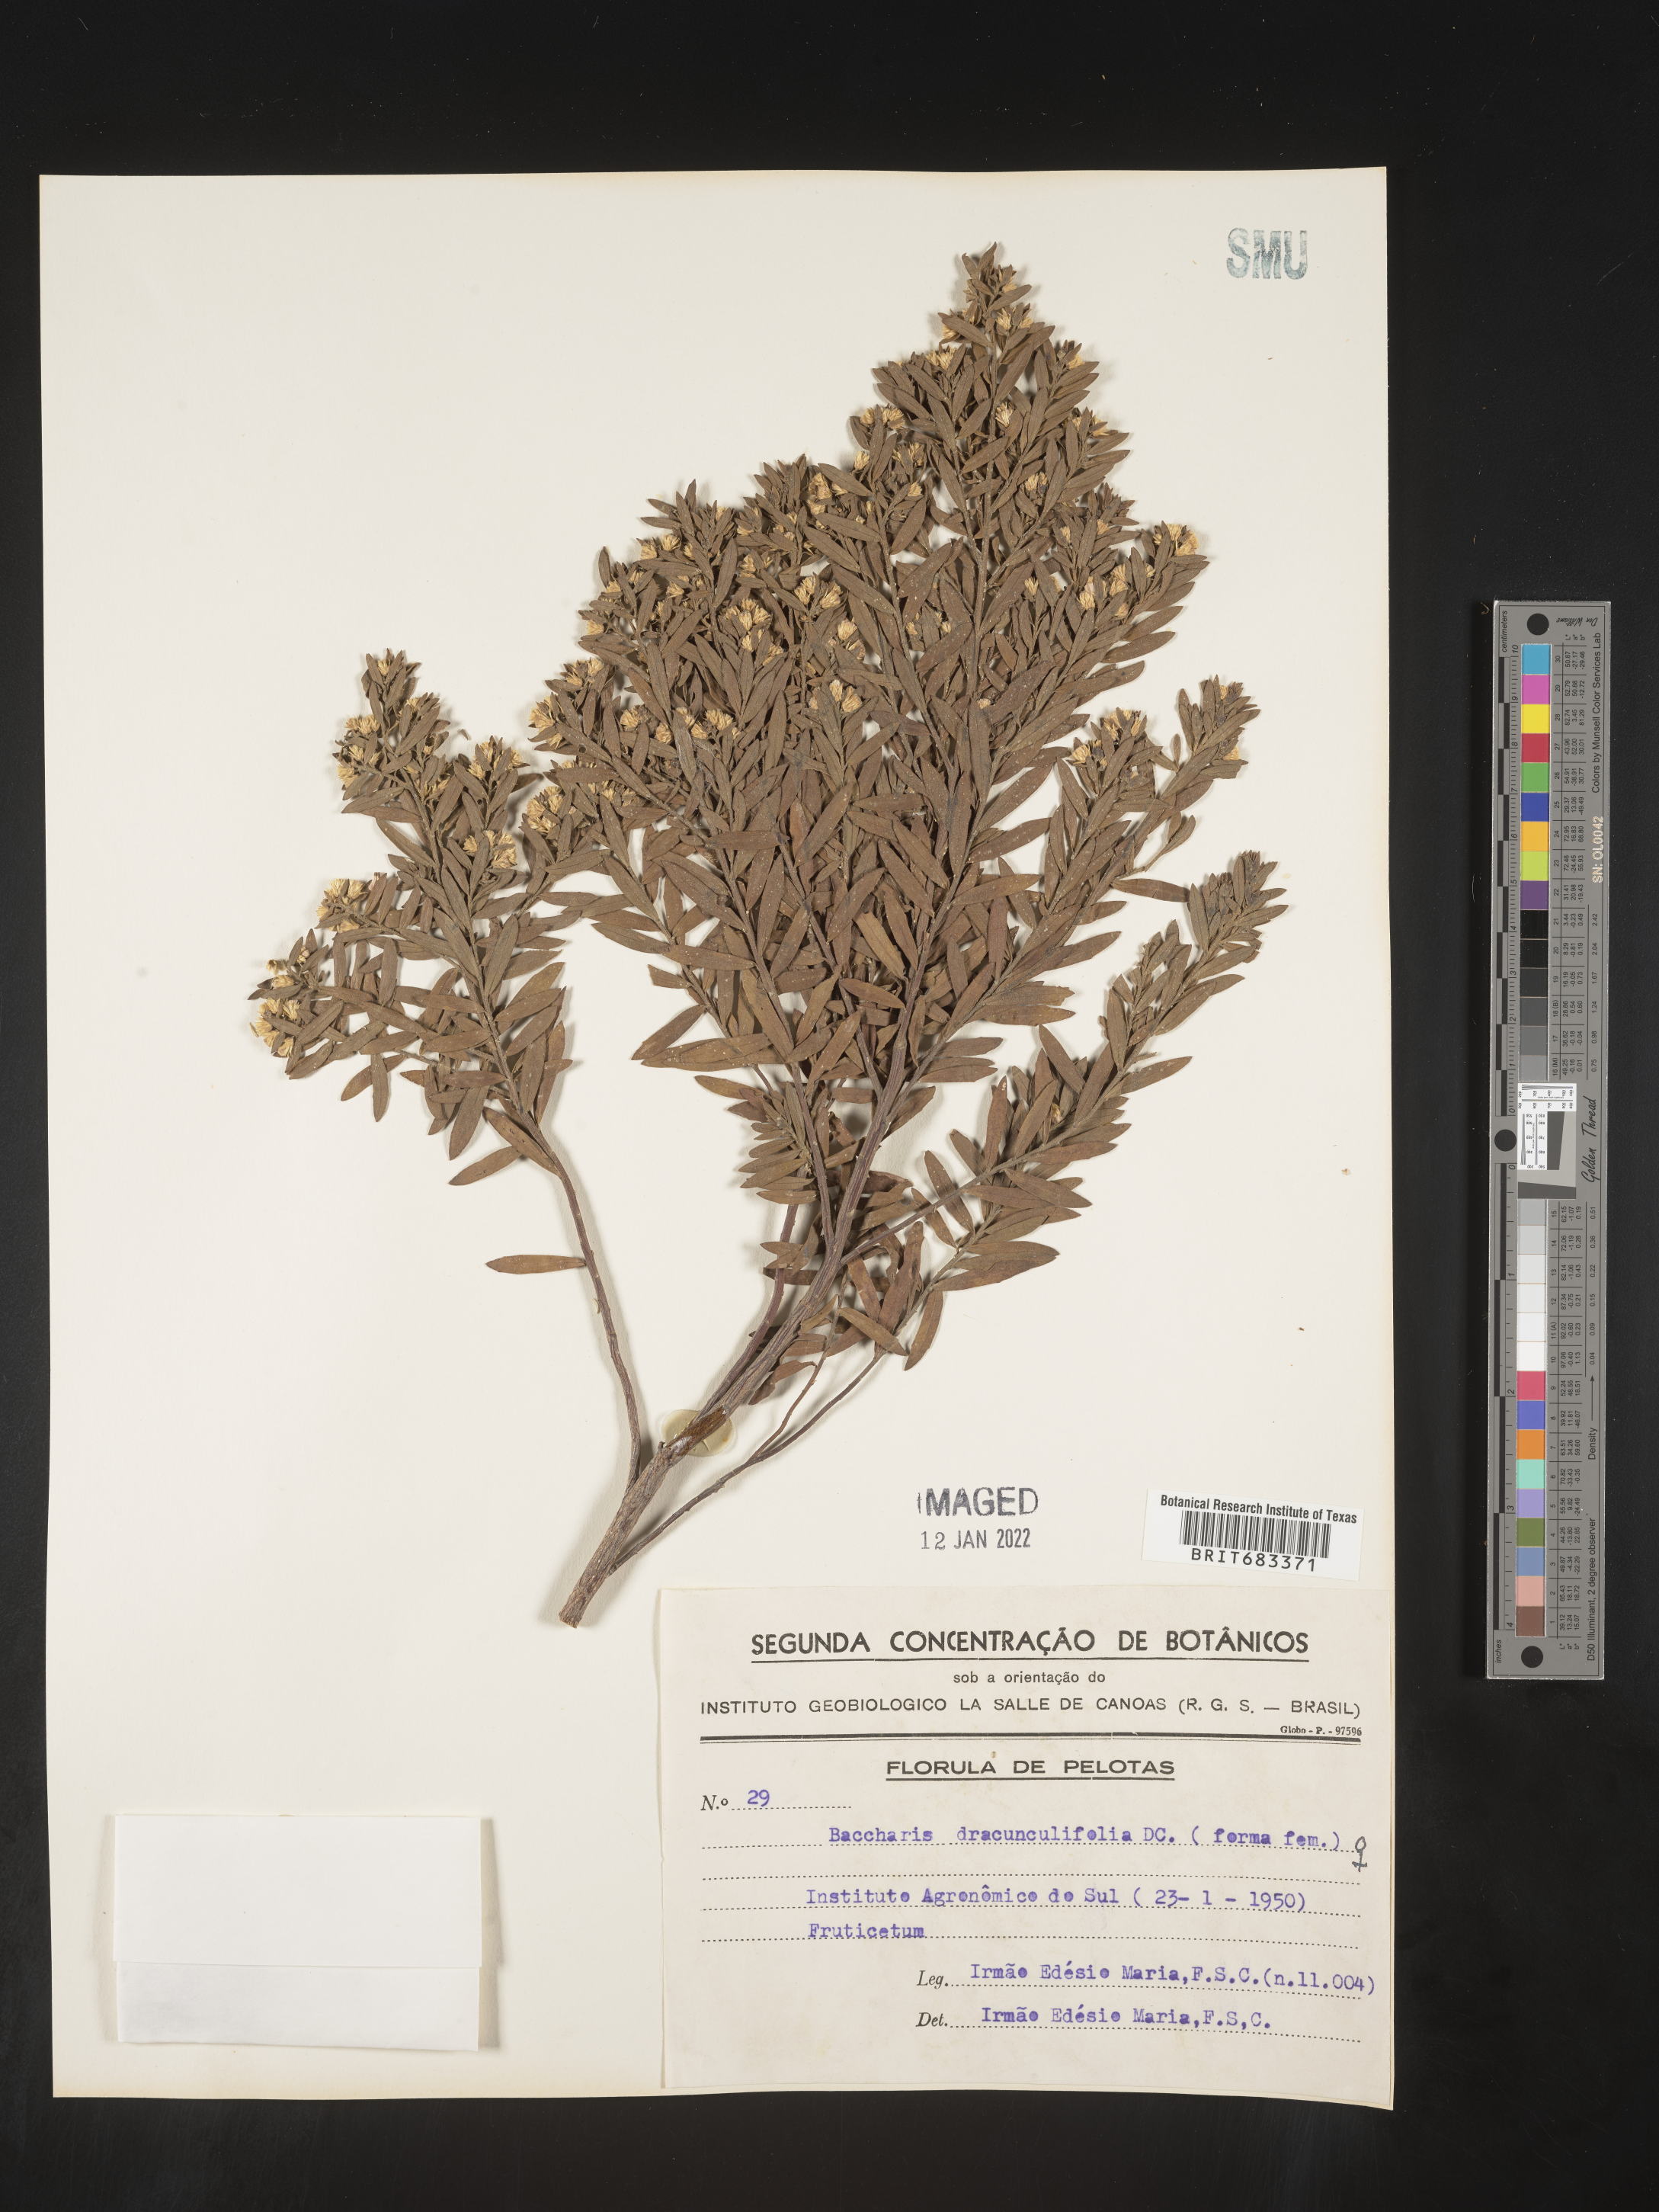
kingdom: Plantae
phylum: Tracheophyta
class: Magnoliopsida
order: Asterales
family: Asteraceae
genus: Baccharis
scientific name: Baccharis
